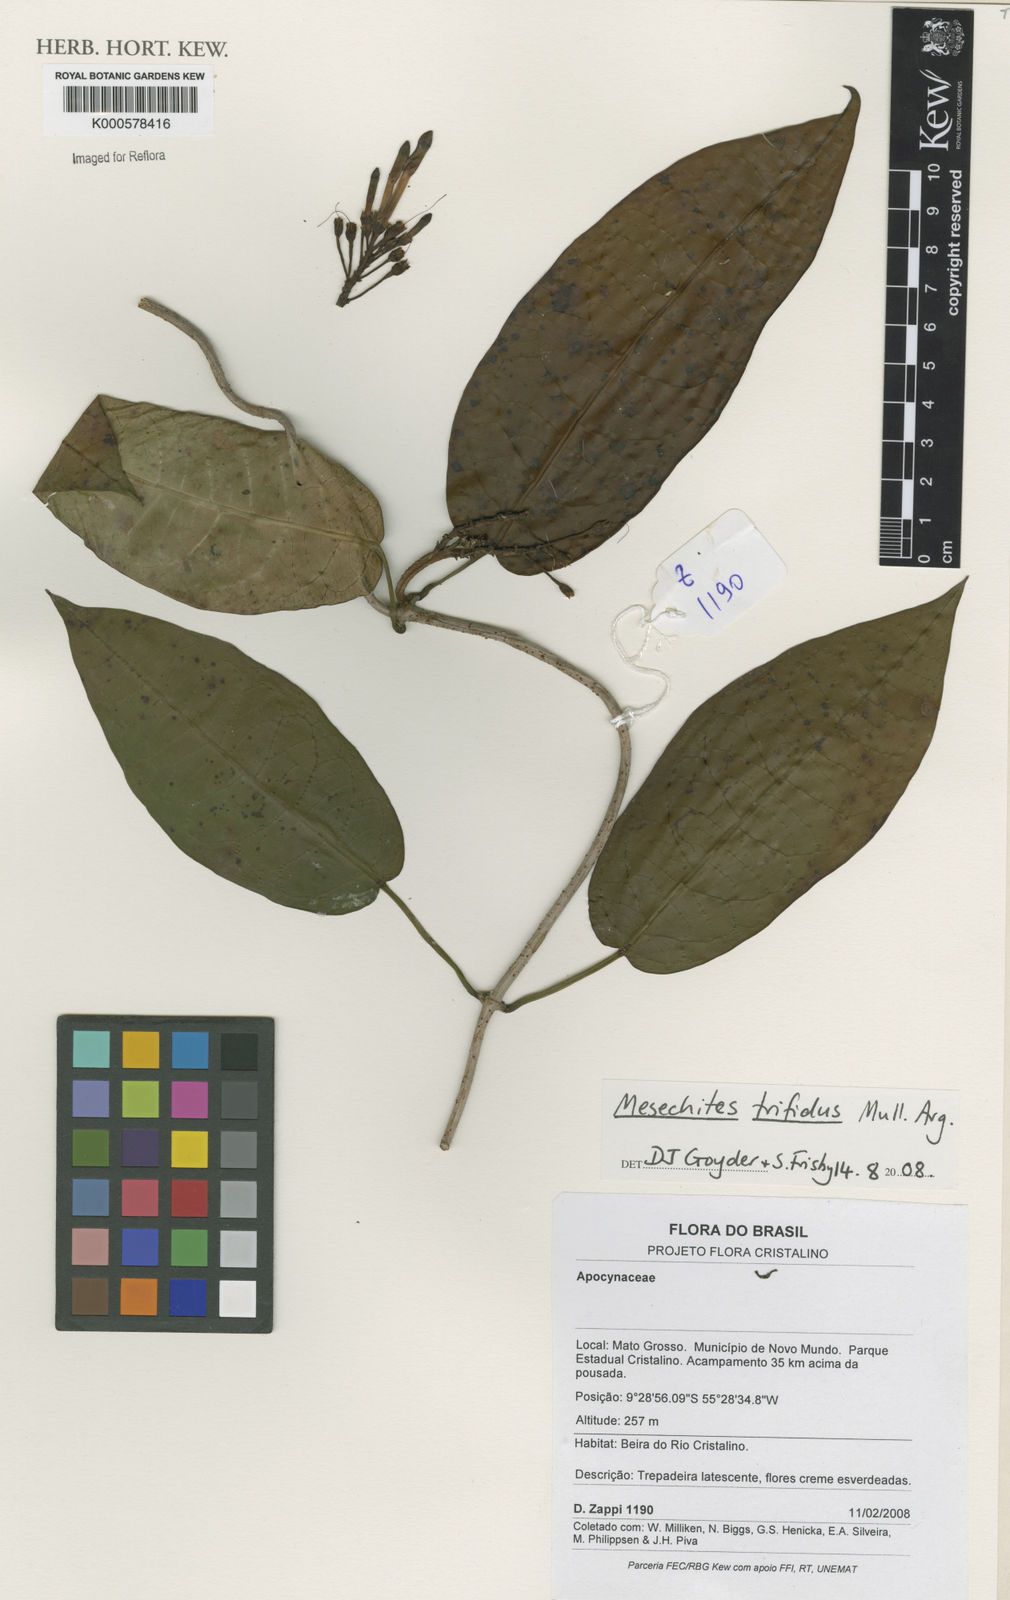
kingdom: Plantae
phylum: Tracheophyta
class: Magnoliopsida
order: Gentianales
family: Apocynaceae
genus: Mesechites
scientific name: Mesechites
